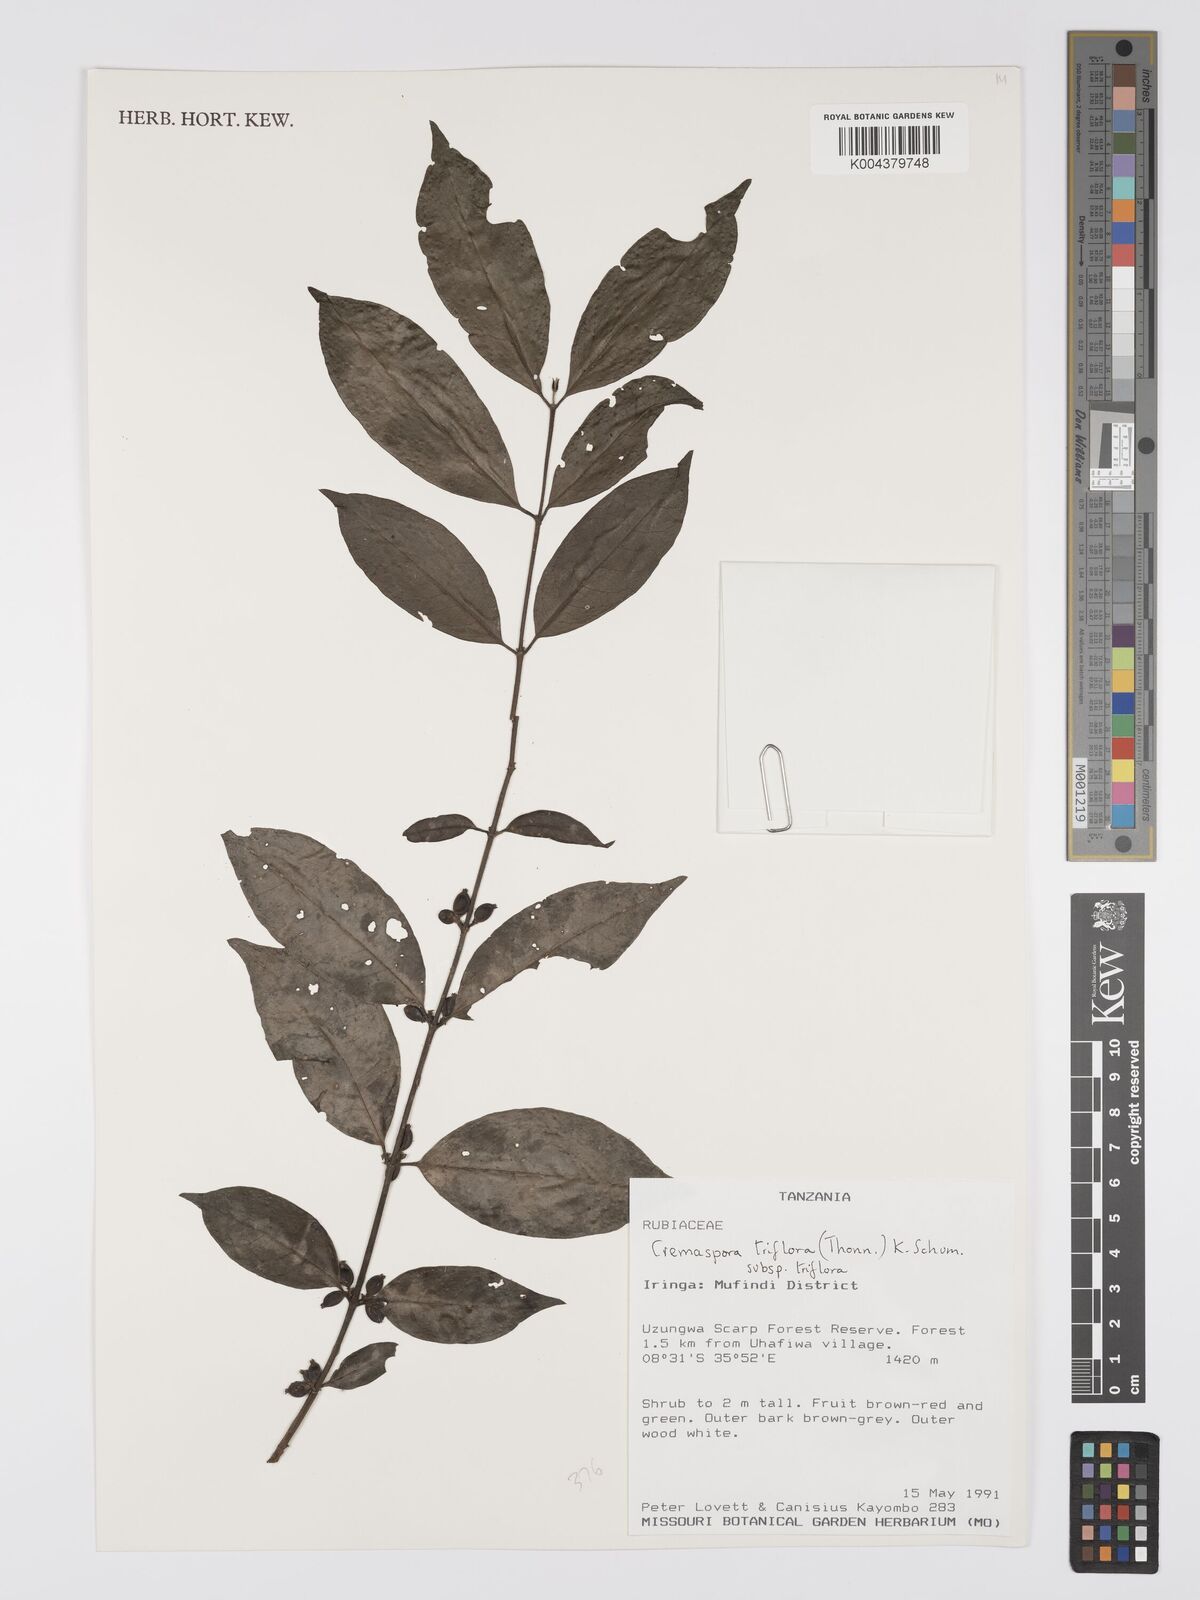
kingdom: Plantae
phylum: Tracheophyta
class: Magnoliopsida
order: Gentianales
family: Rubiaceae
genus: Cremaspora
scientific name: Cremaspora triflora
